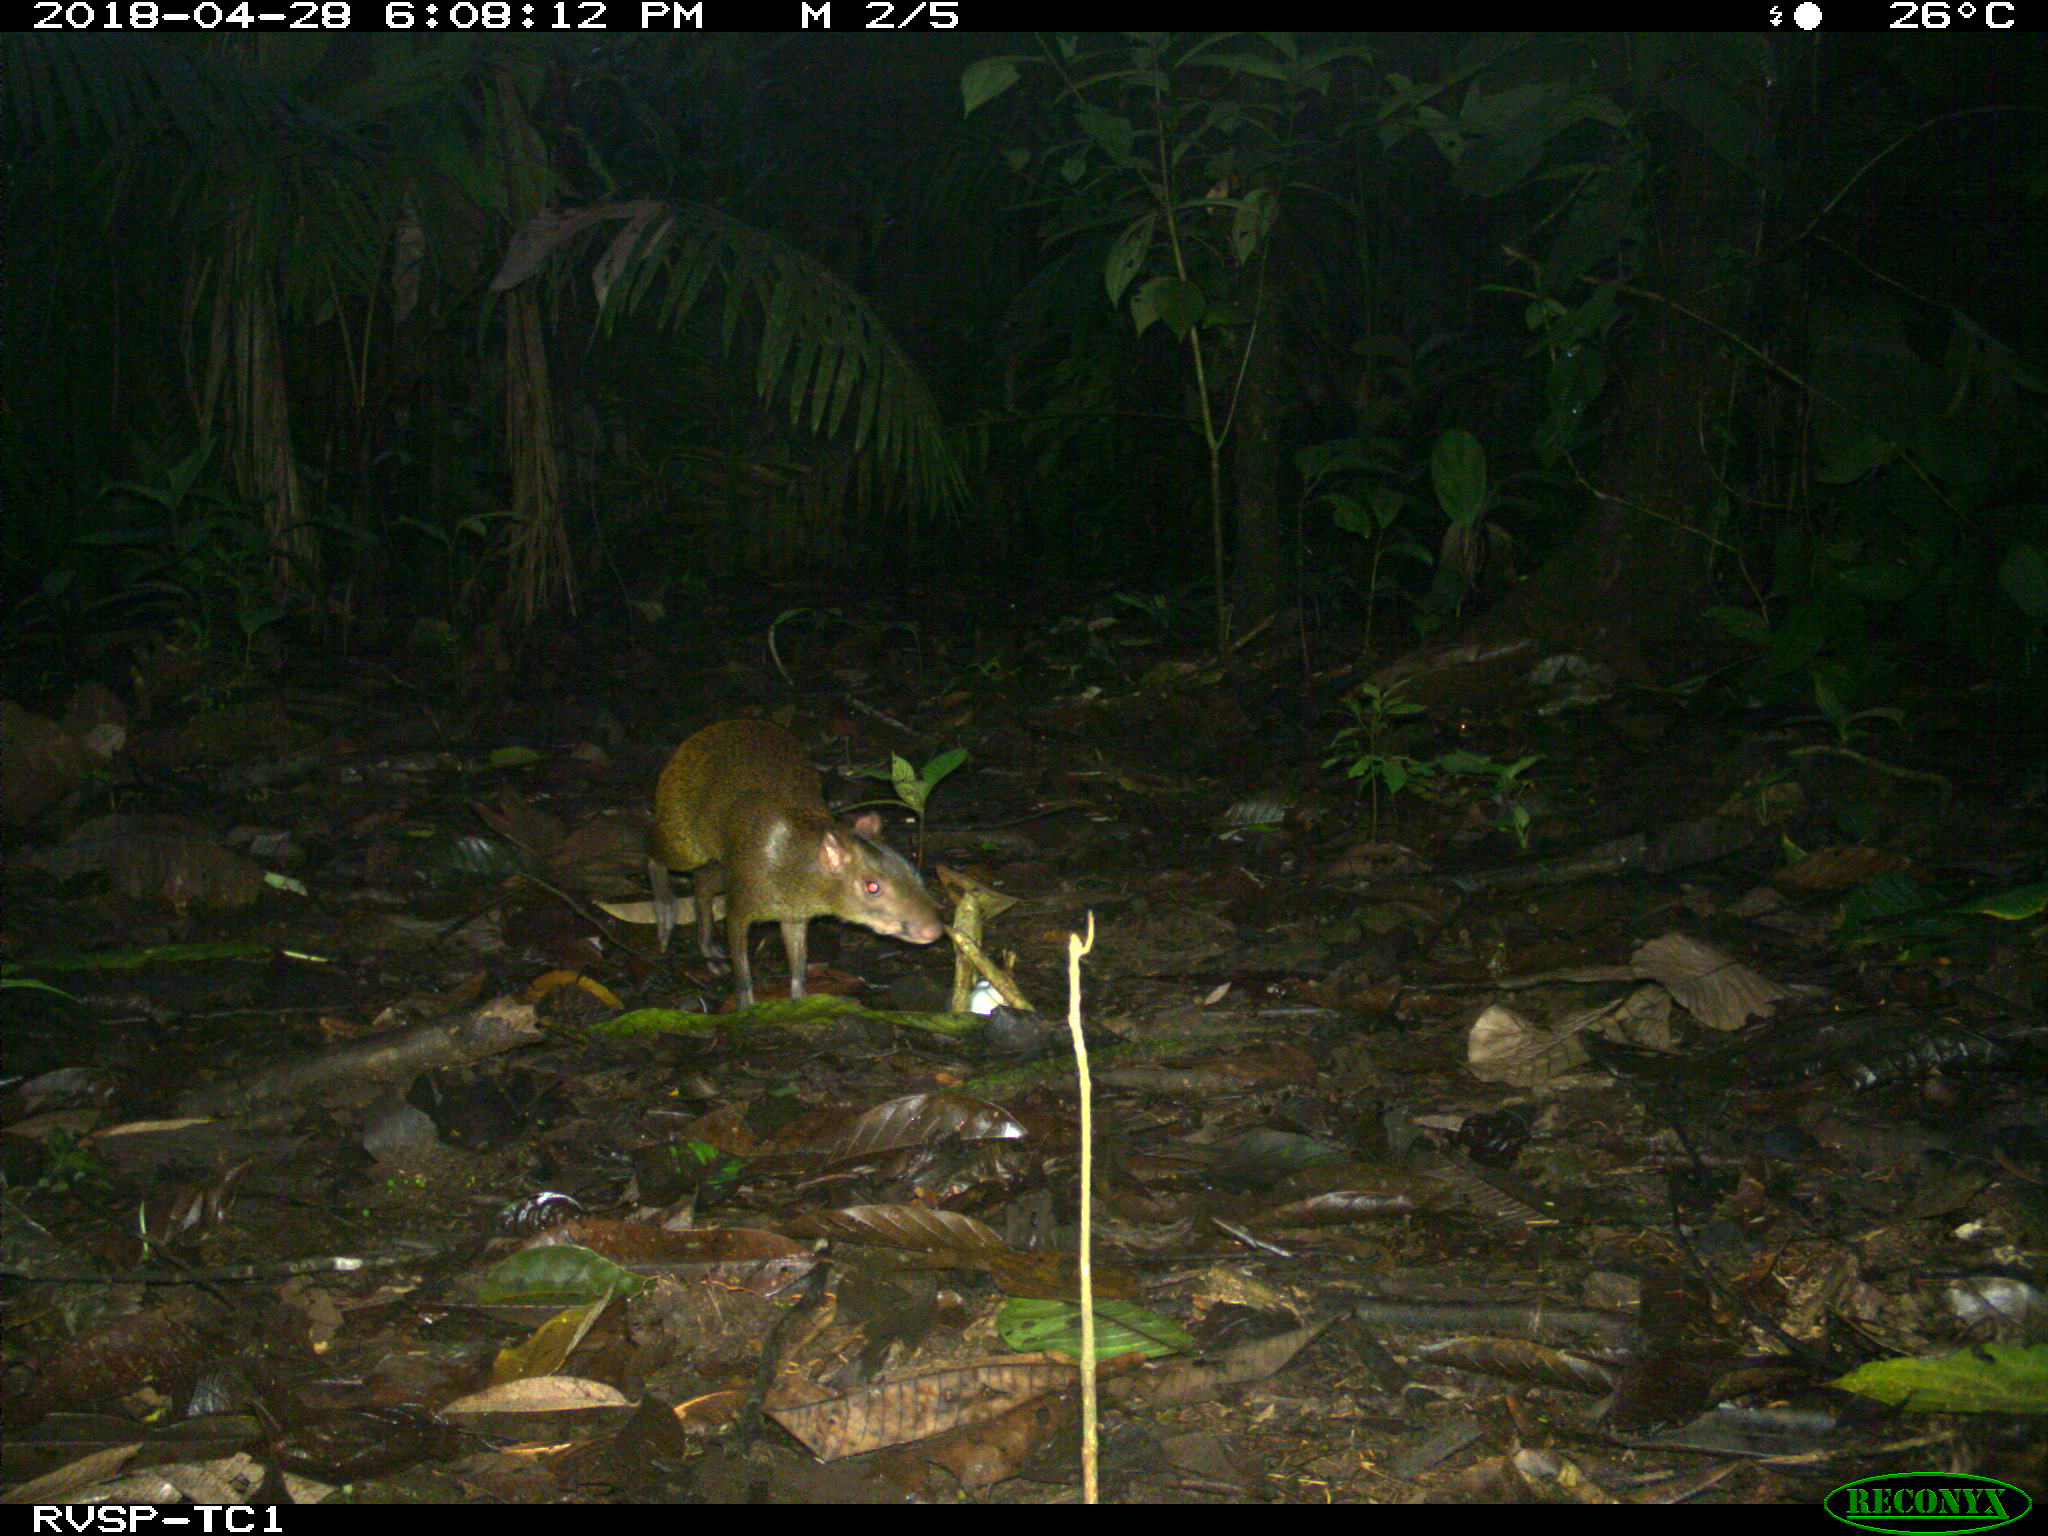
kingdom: Animalia
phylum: Chordata
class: Mammalia
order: Rodentia
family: Dasyproctidae
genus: Dasyprocta
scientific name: Dasyprocta punctata
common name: Central american agouti
